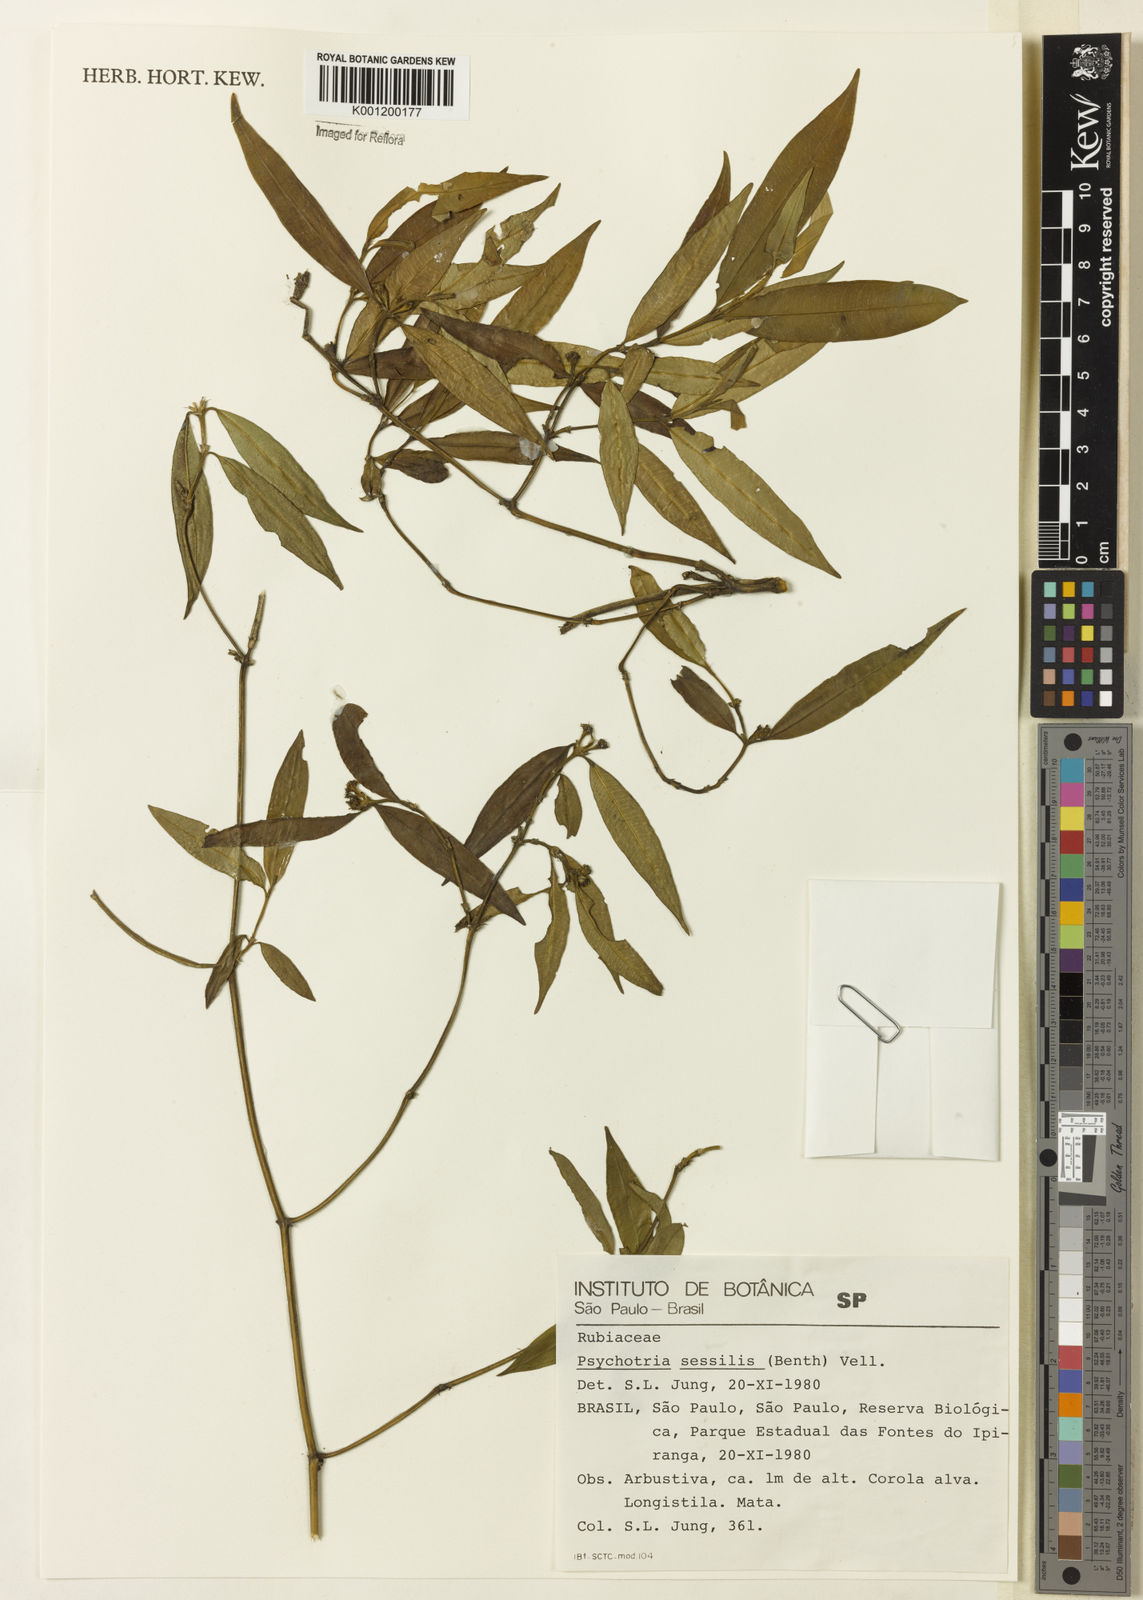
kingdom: Plantae
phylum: Tracheophyta
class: Magnoliopsida
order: Gentianales
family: Rubiaceae
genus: Rudgea
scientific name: Rudgea sessilis
